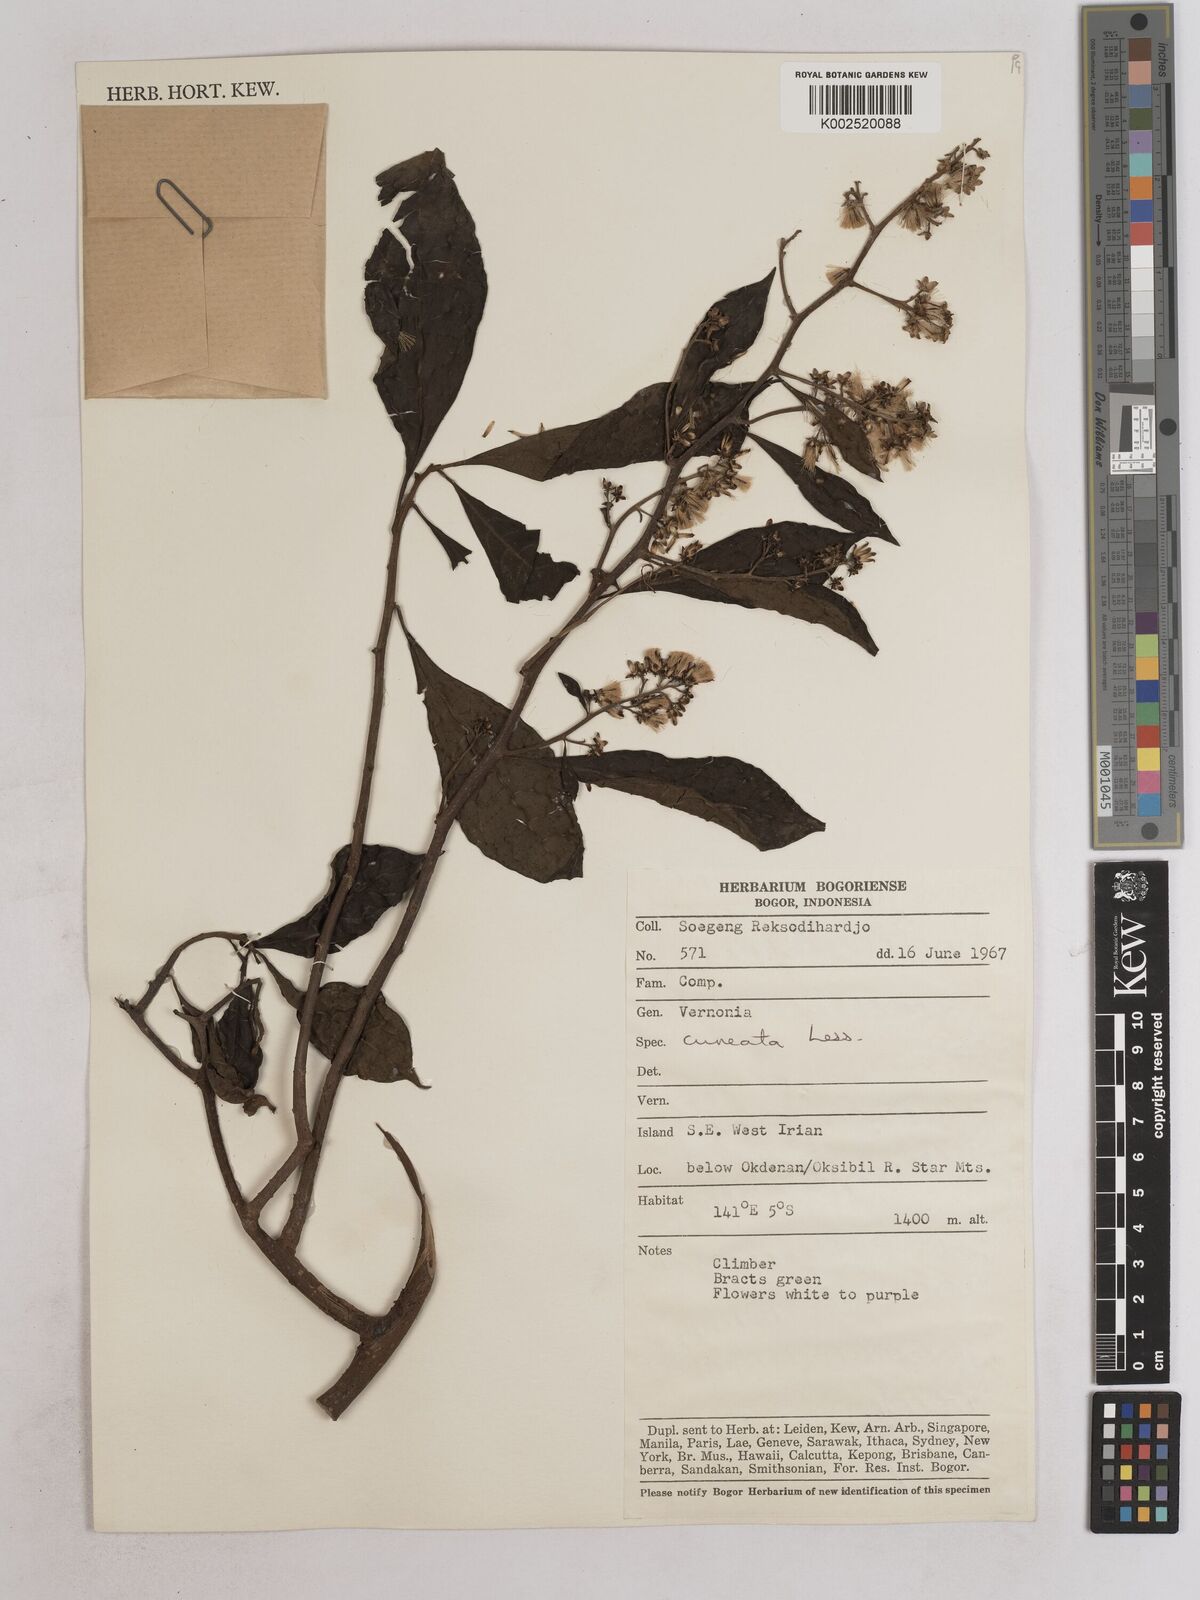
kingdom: Plantae
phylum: Tracheophyta
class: Magnoliopsida
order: Asterales
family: Asteraceae
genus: Decaneuropsis
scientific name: Decaneuropsis obovata
